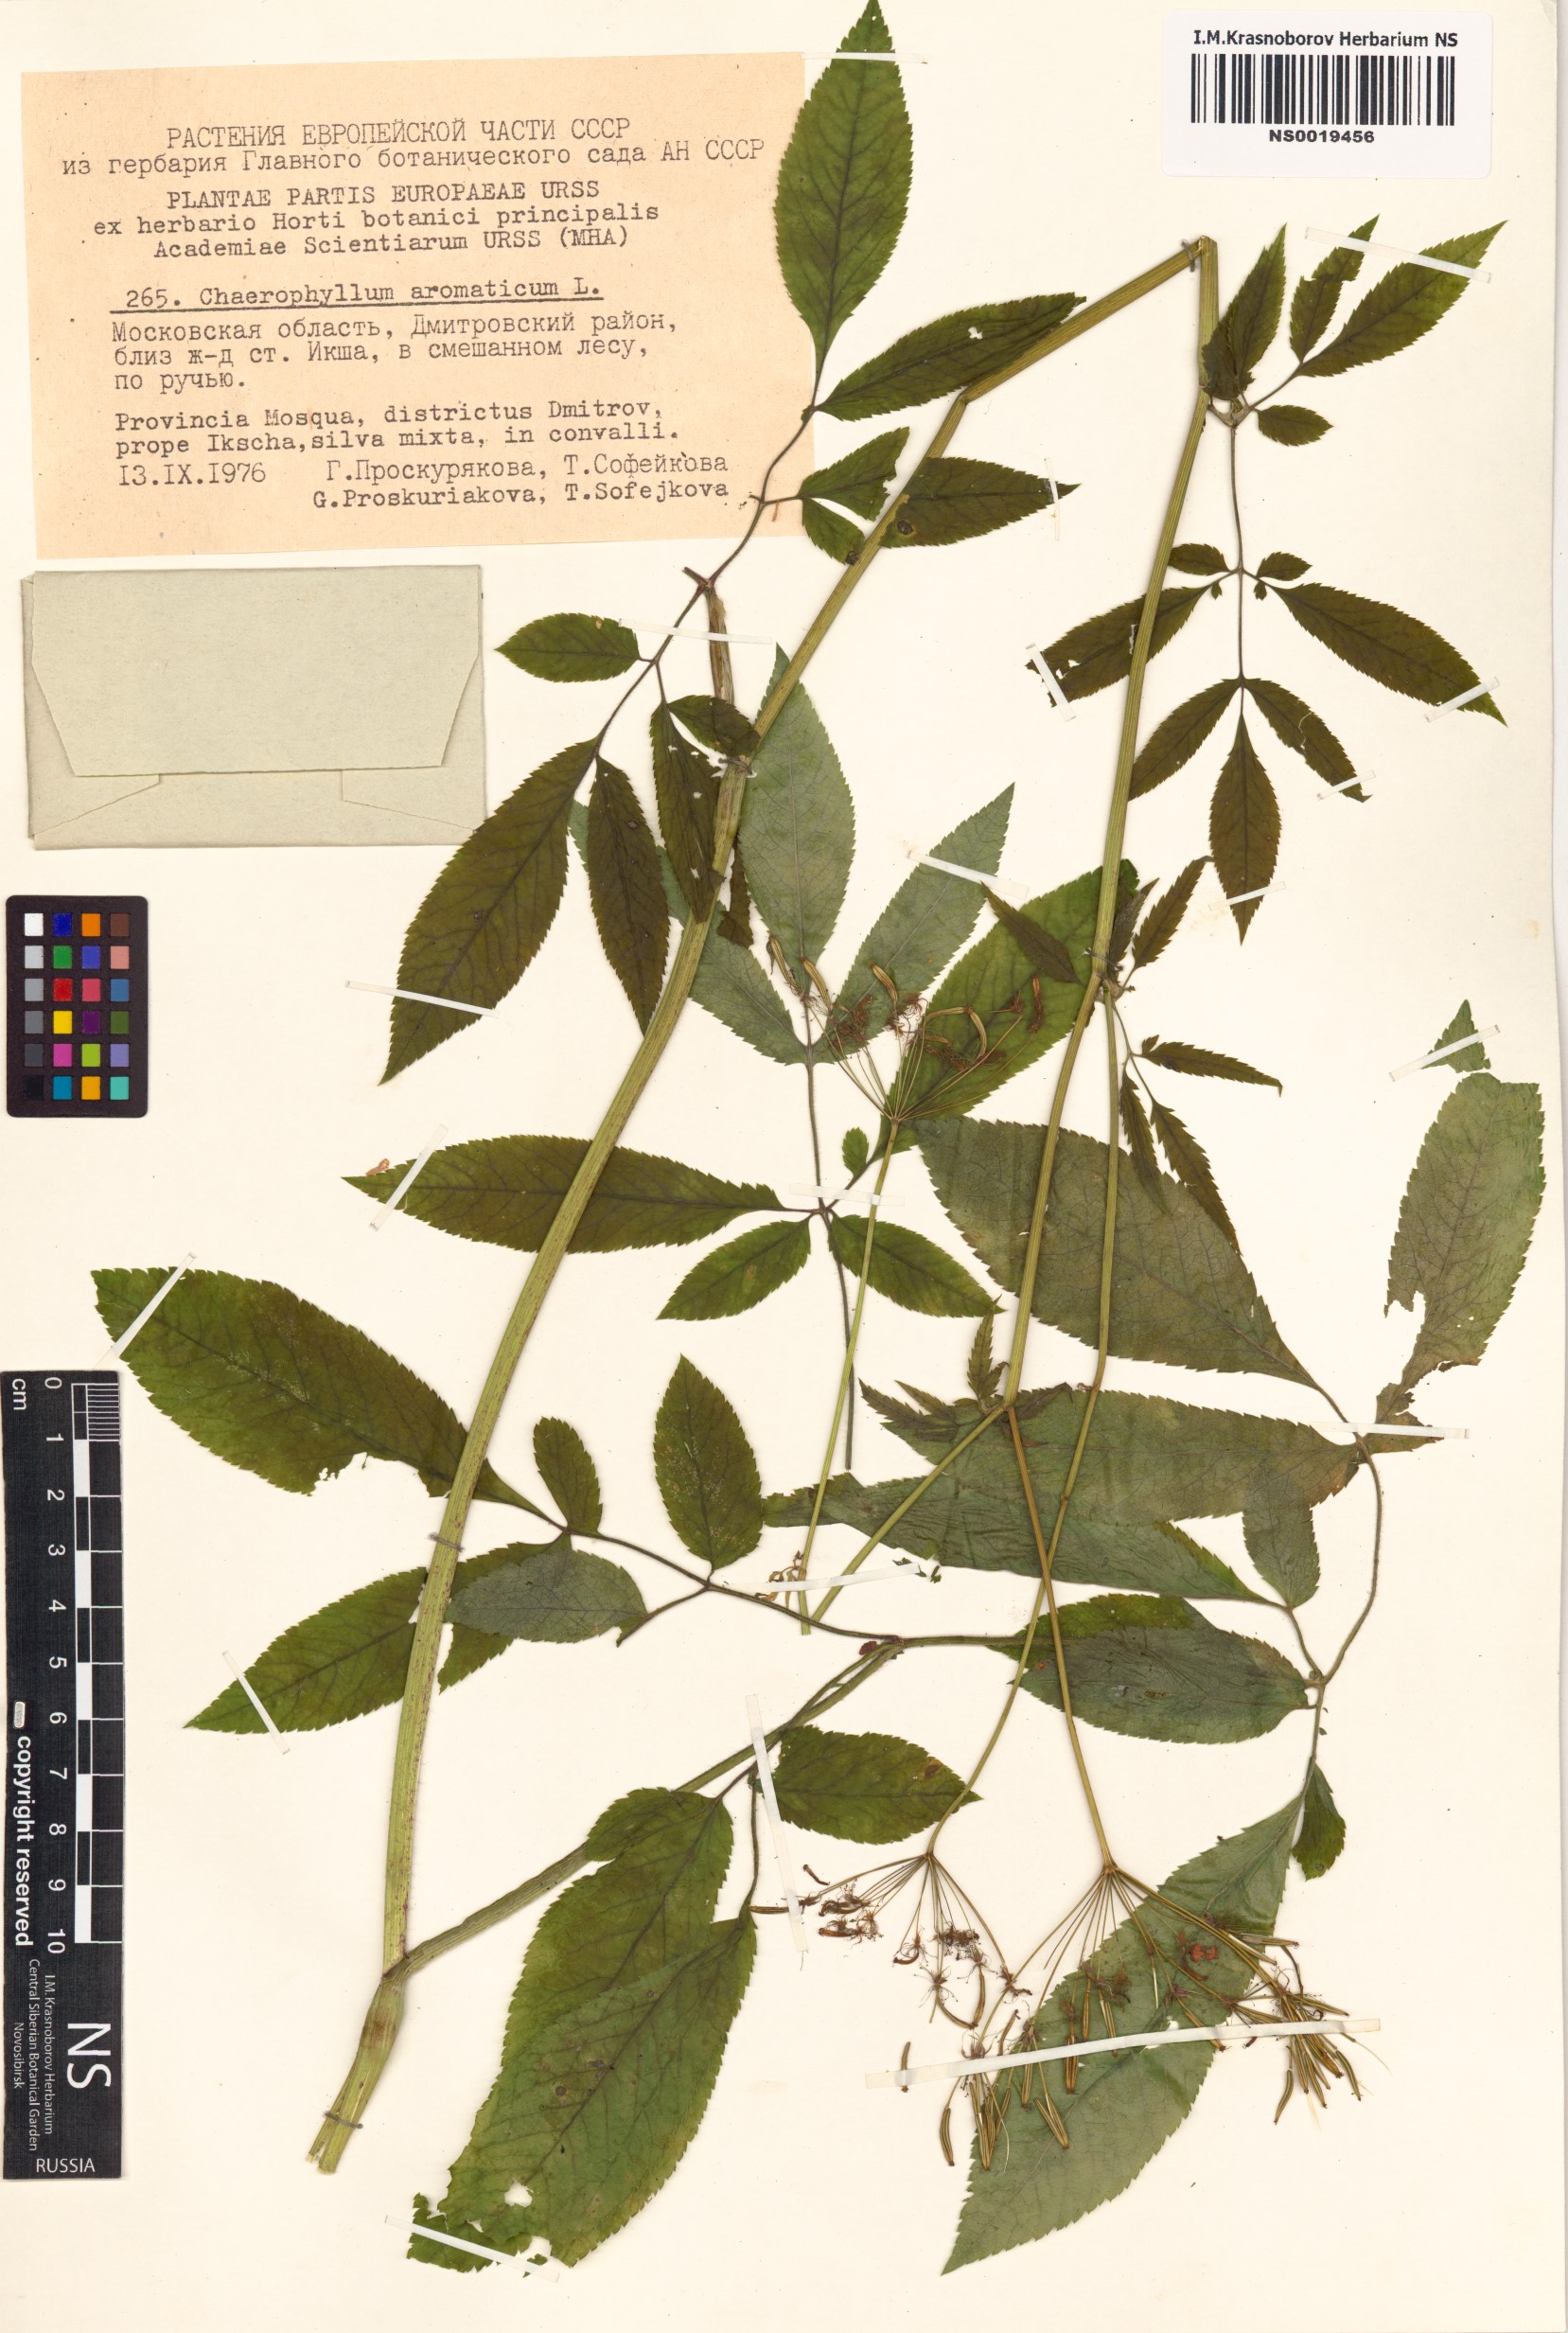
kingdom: Plantae
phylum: Tracheophyta
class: Magnoliopsida
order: Apiales
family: Apiaceae
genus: Chaerophyllum
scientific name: Chaerophyllum aromaticum
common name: Broadleaf chervil
